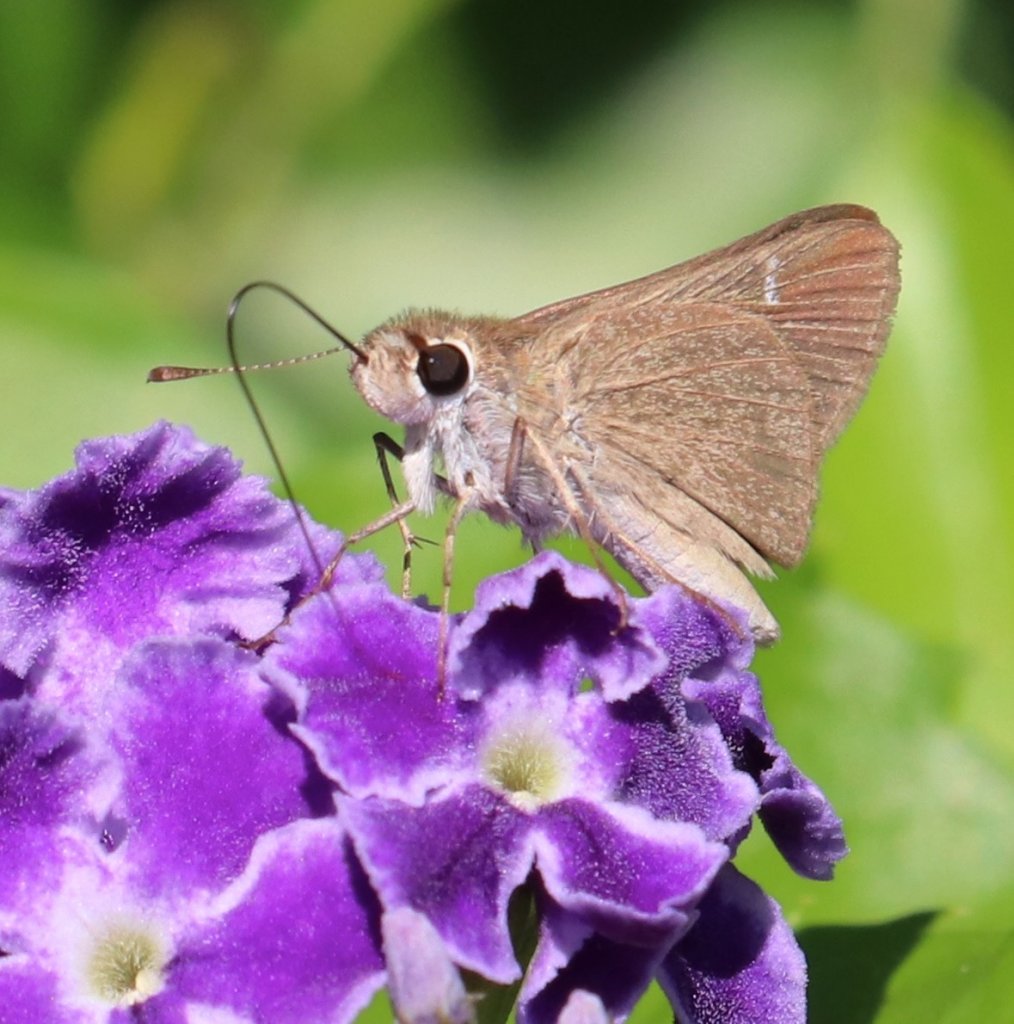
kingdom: Animalia
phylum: Arthropoda
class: Insecta
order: Lepidoptera
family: Hesperiidae
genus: Lerodea
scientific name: Lerodea eufala
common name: Eufala Skipper
